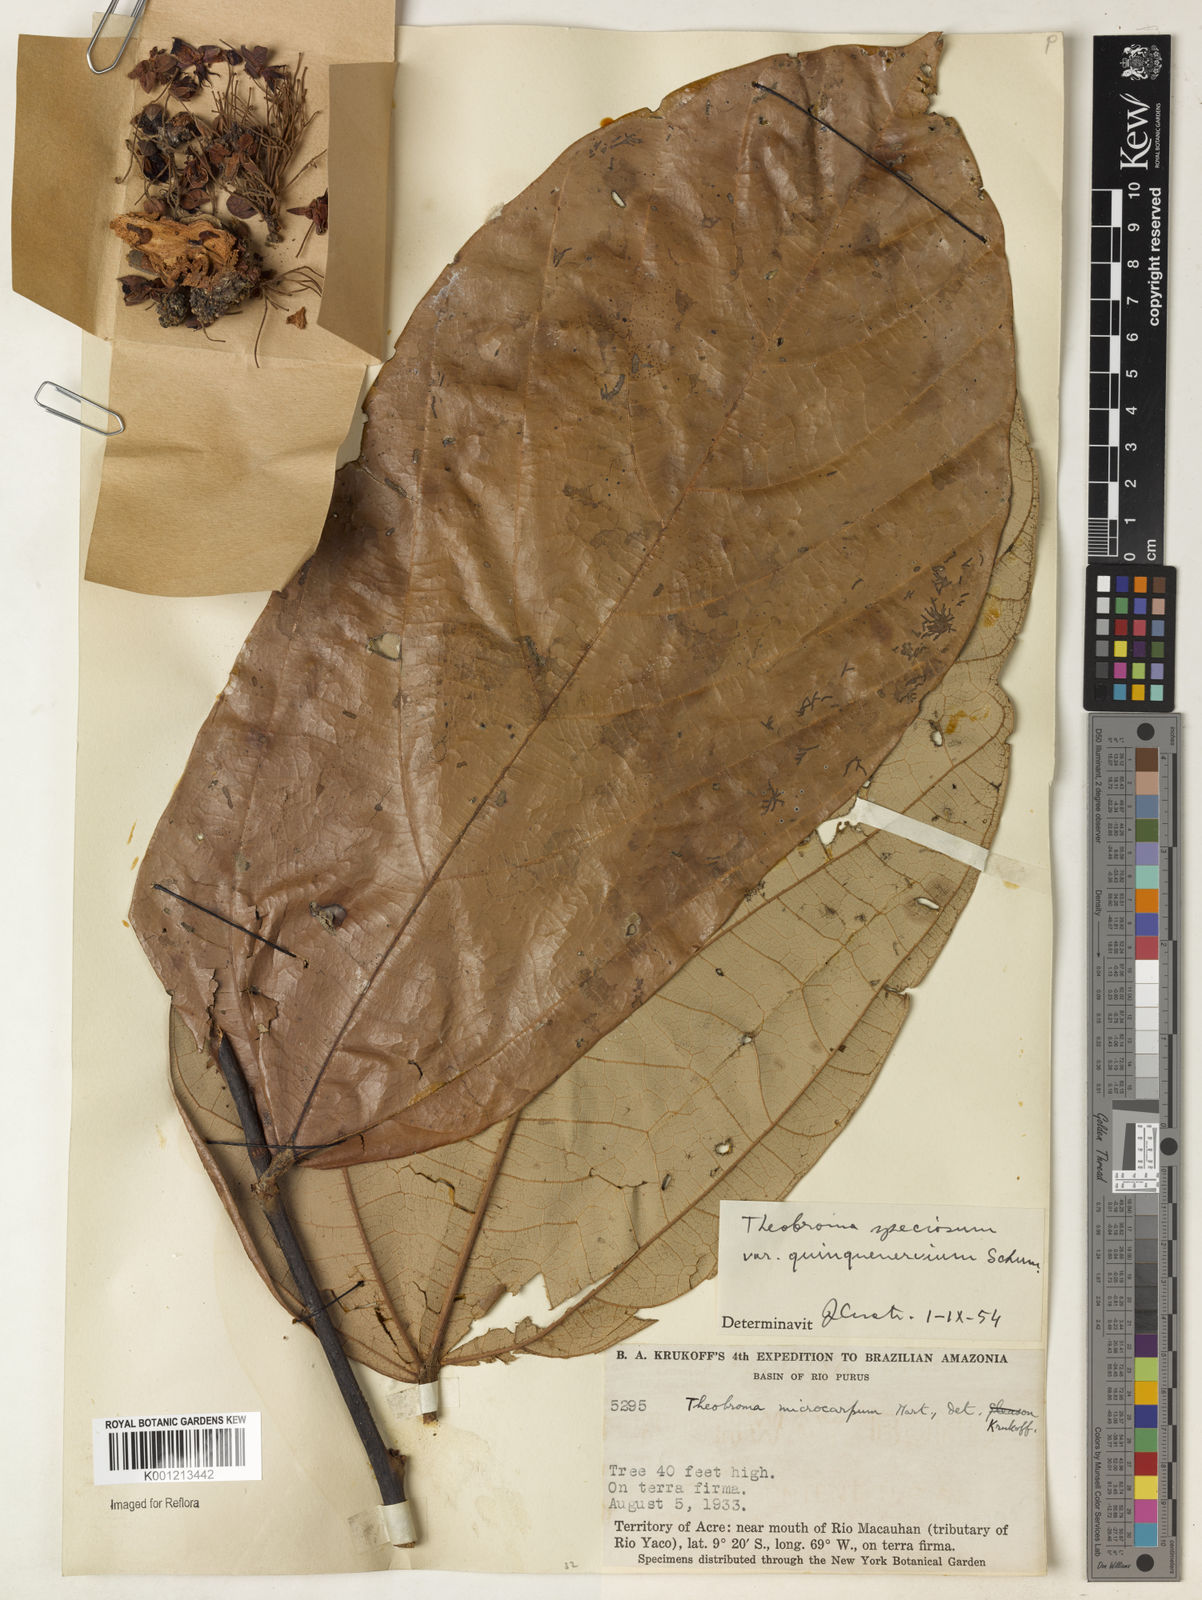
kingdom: Plantae
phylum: Tracheophyta
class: Magnoliopsida
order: Malvales
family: Malvaceae
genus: Theobroma
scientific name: Theobroma speciosum
